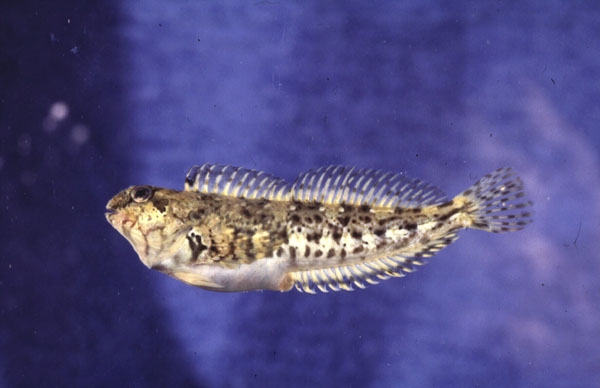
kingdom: Animalia
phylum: Chordata
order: Perciformes
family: Blenniidae
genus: Lipophrys
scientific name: Lipophrys pholis
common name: Shanny
